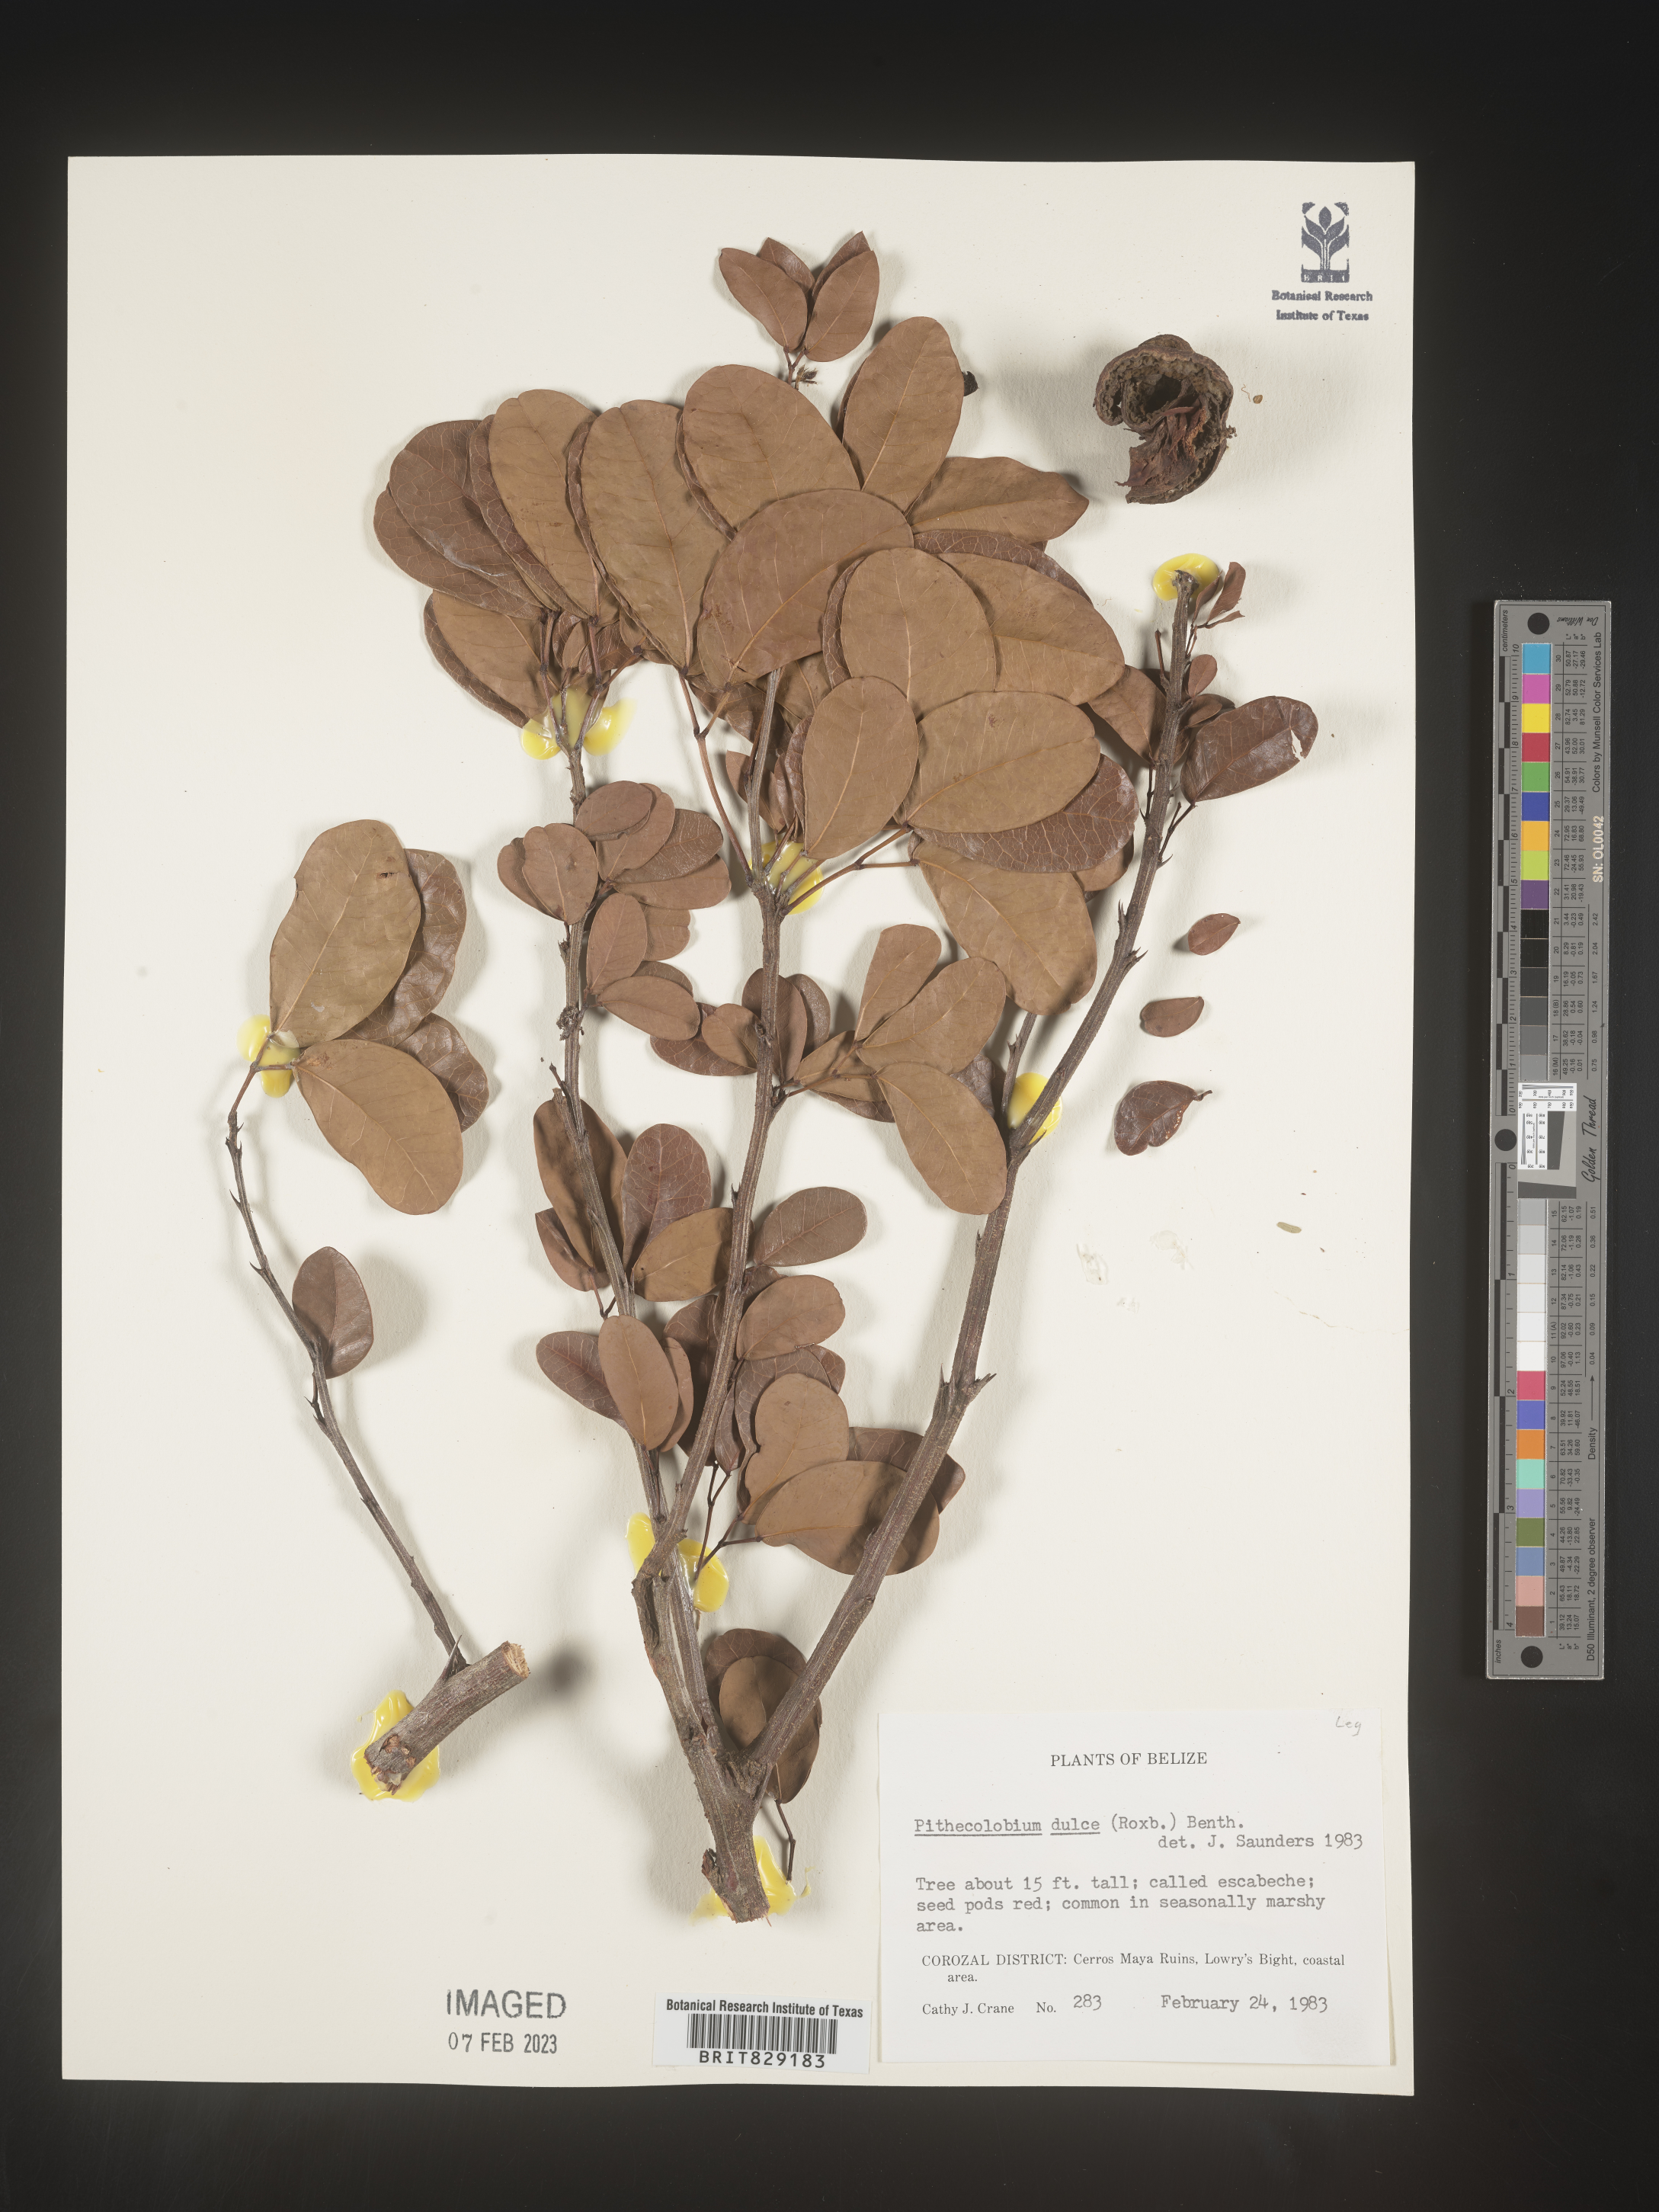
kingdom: Plantae
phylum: Tracheophyta
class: Magnoliopsida
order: Fabales
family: Fabaceae
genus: Pithecellobium
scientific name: Pithecellobium
